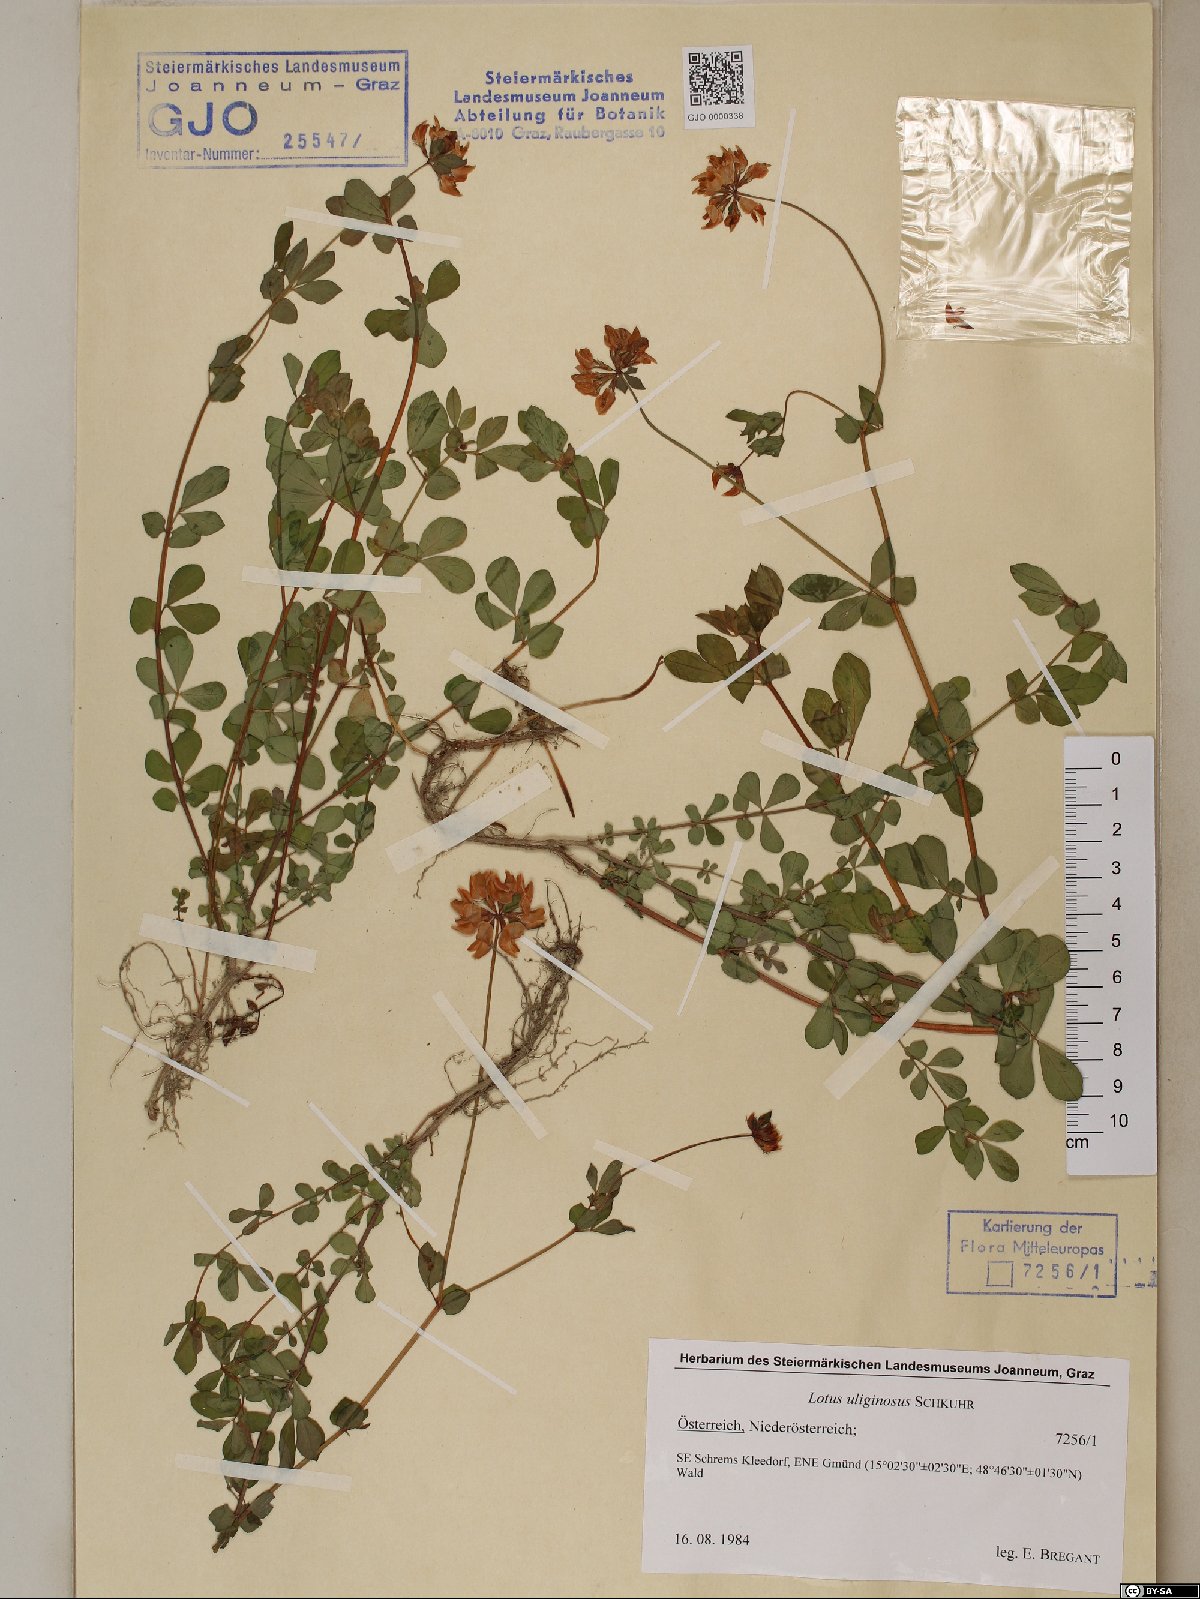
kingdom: Plantae
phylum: Tracheophyta
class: Magnoliopsida
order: Fabales
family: Fabaceae
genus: Lotus
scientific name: Lotus pedunculatus
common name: Greater birdsfoot-trefoil
